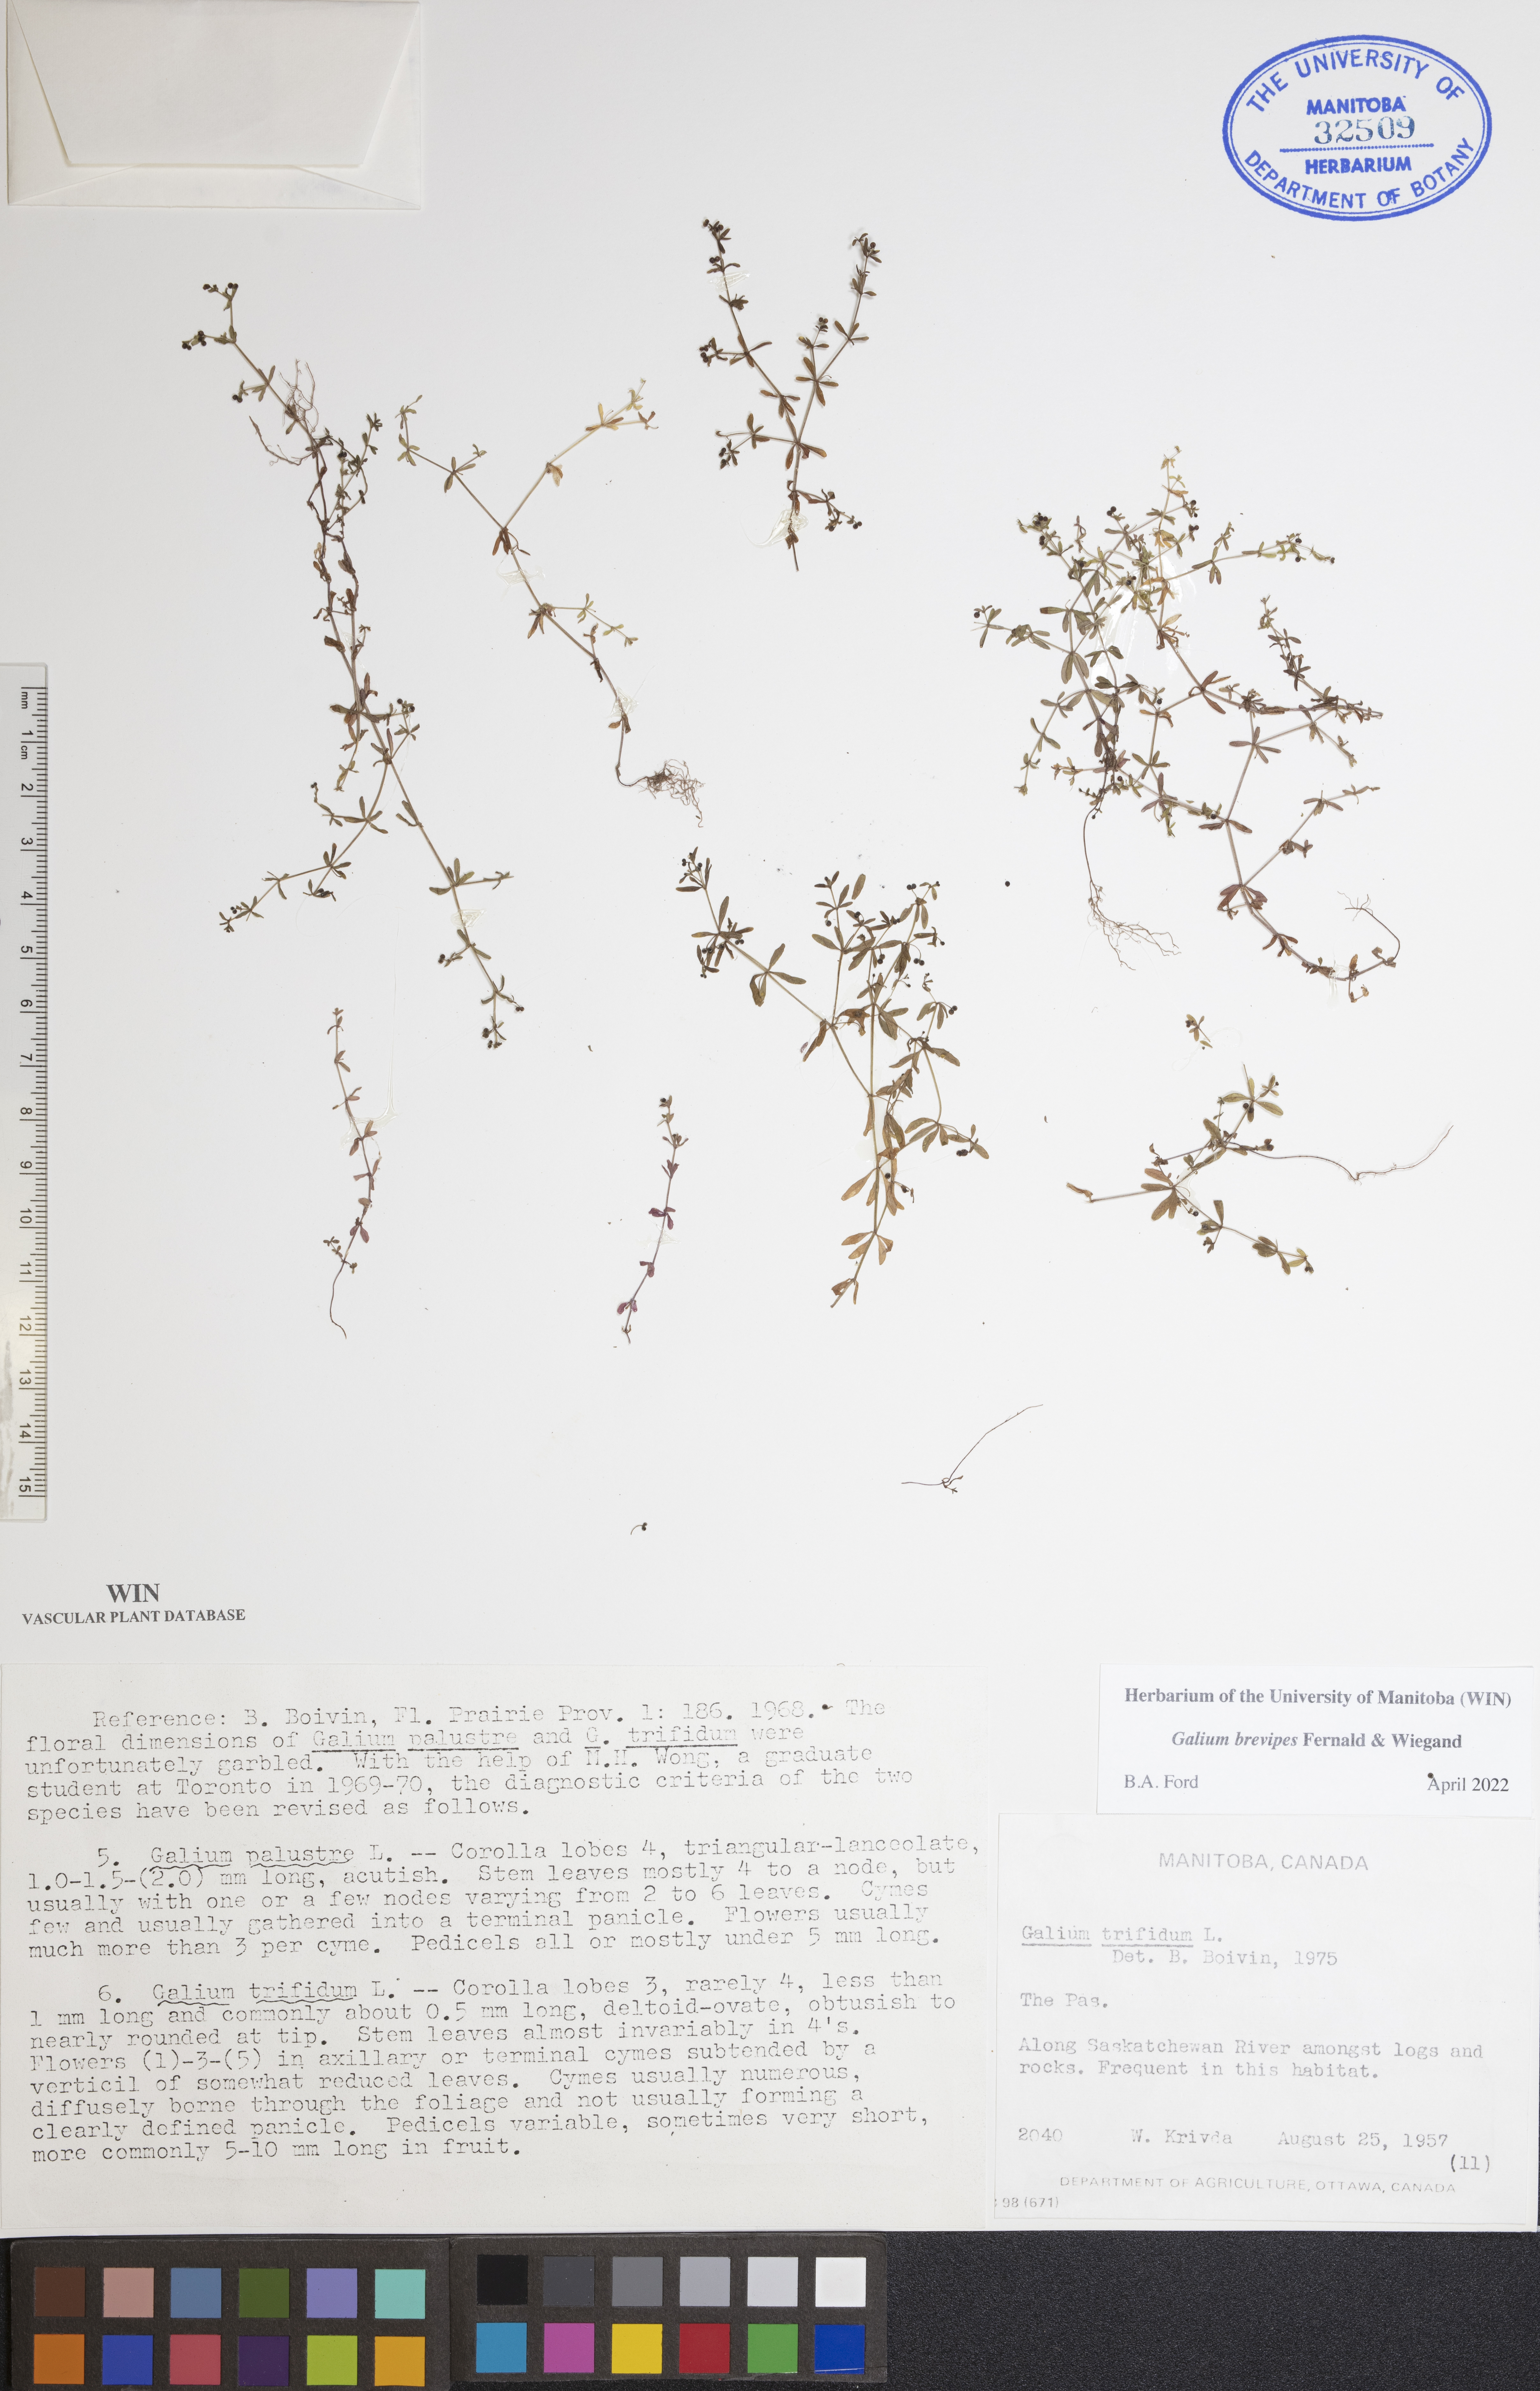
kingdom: Plantae
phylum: Tracheophyta
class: Magnoliopsida
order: Gentianales
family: Rubiaceae
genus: Galium
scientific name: Galium domingense
